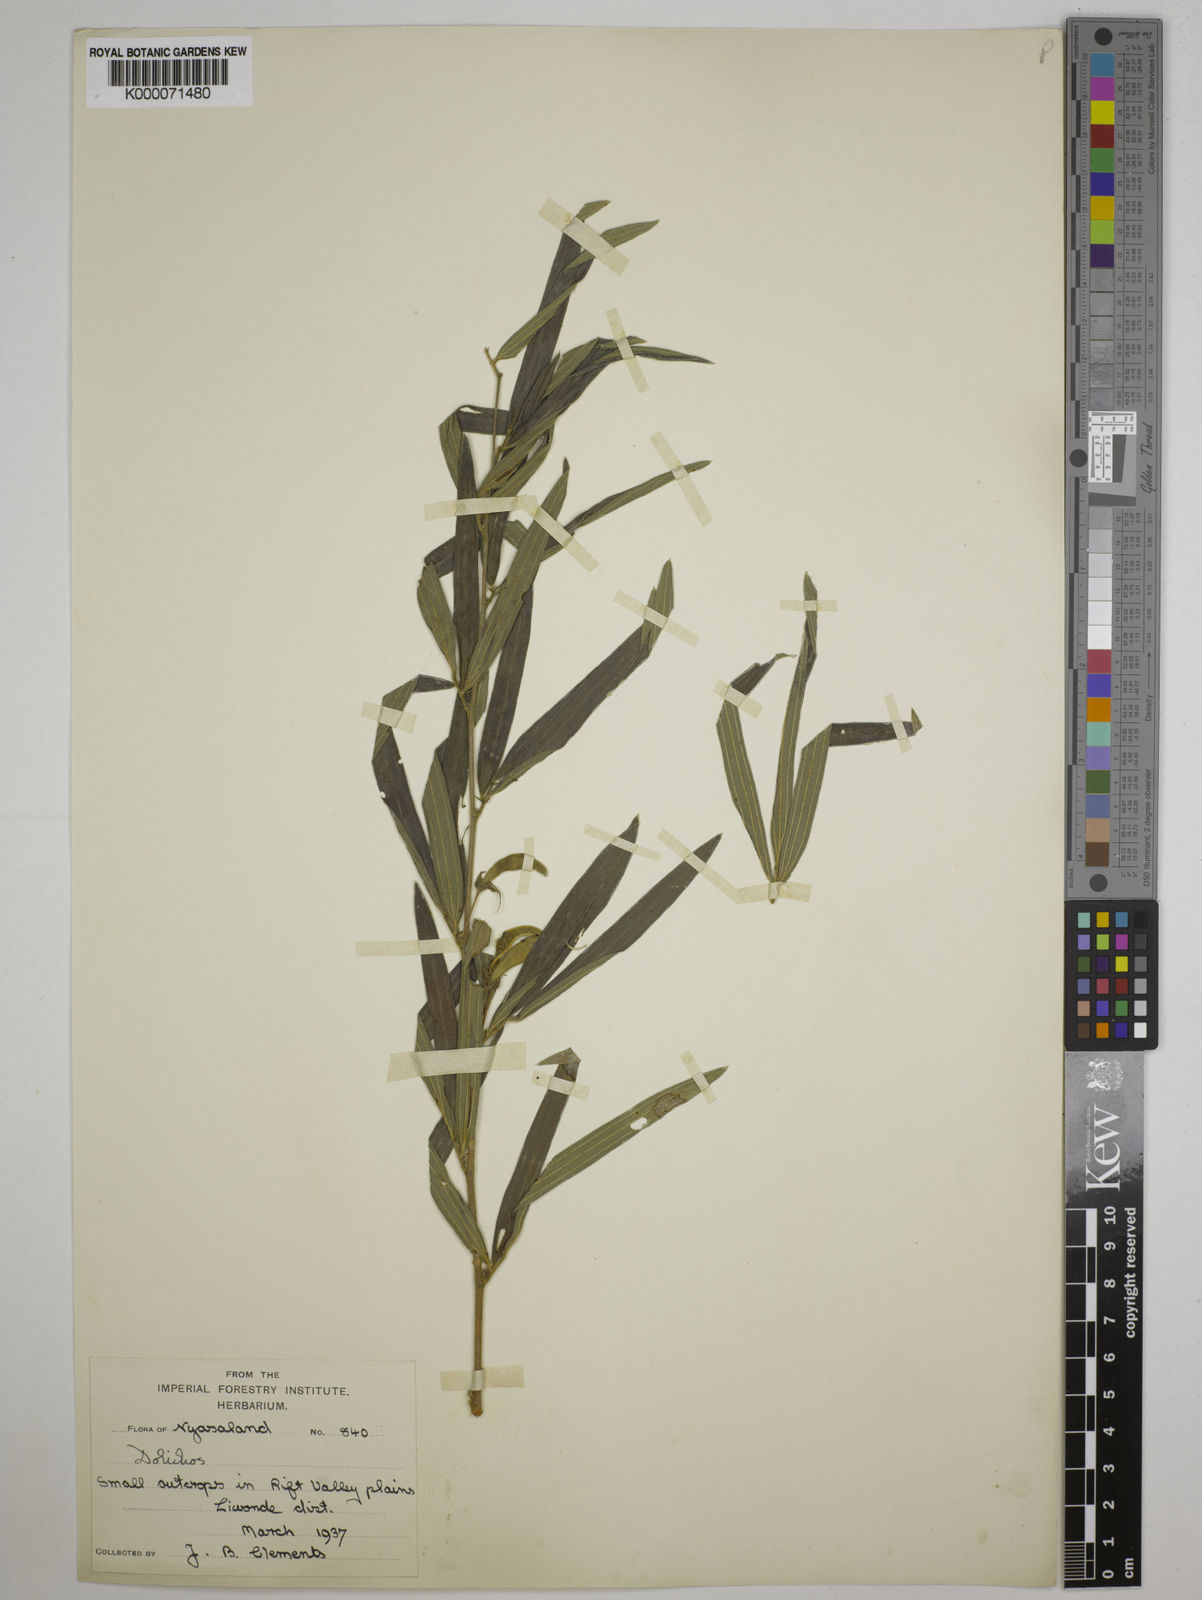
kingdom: Plantae
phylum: Tracheophyta
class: Magnoliopsida
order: Fabales
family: Fabaceae
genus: Dolichos
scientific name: Dolichos trinervatus
